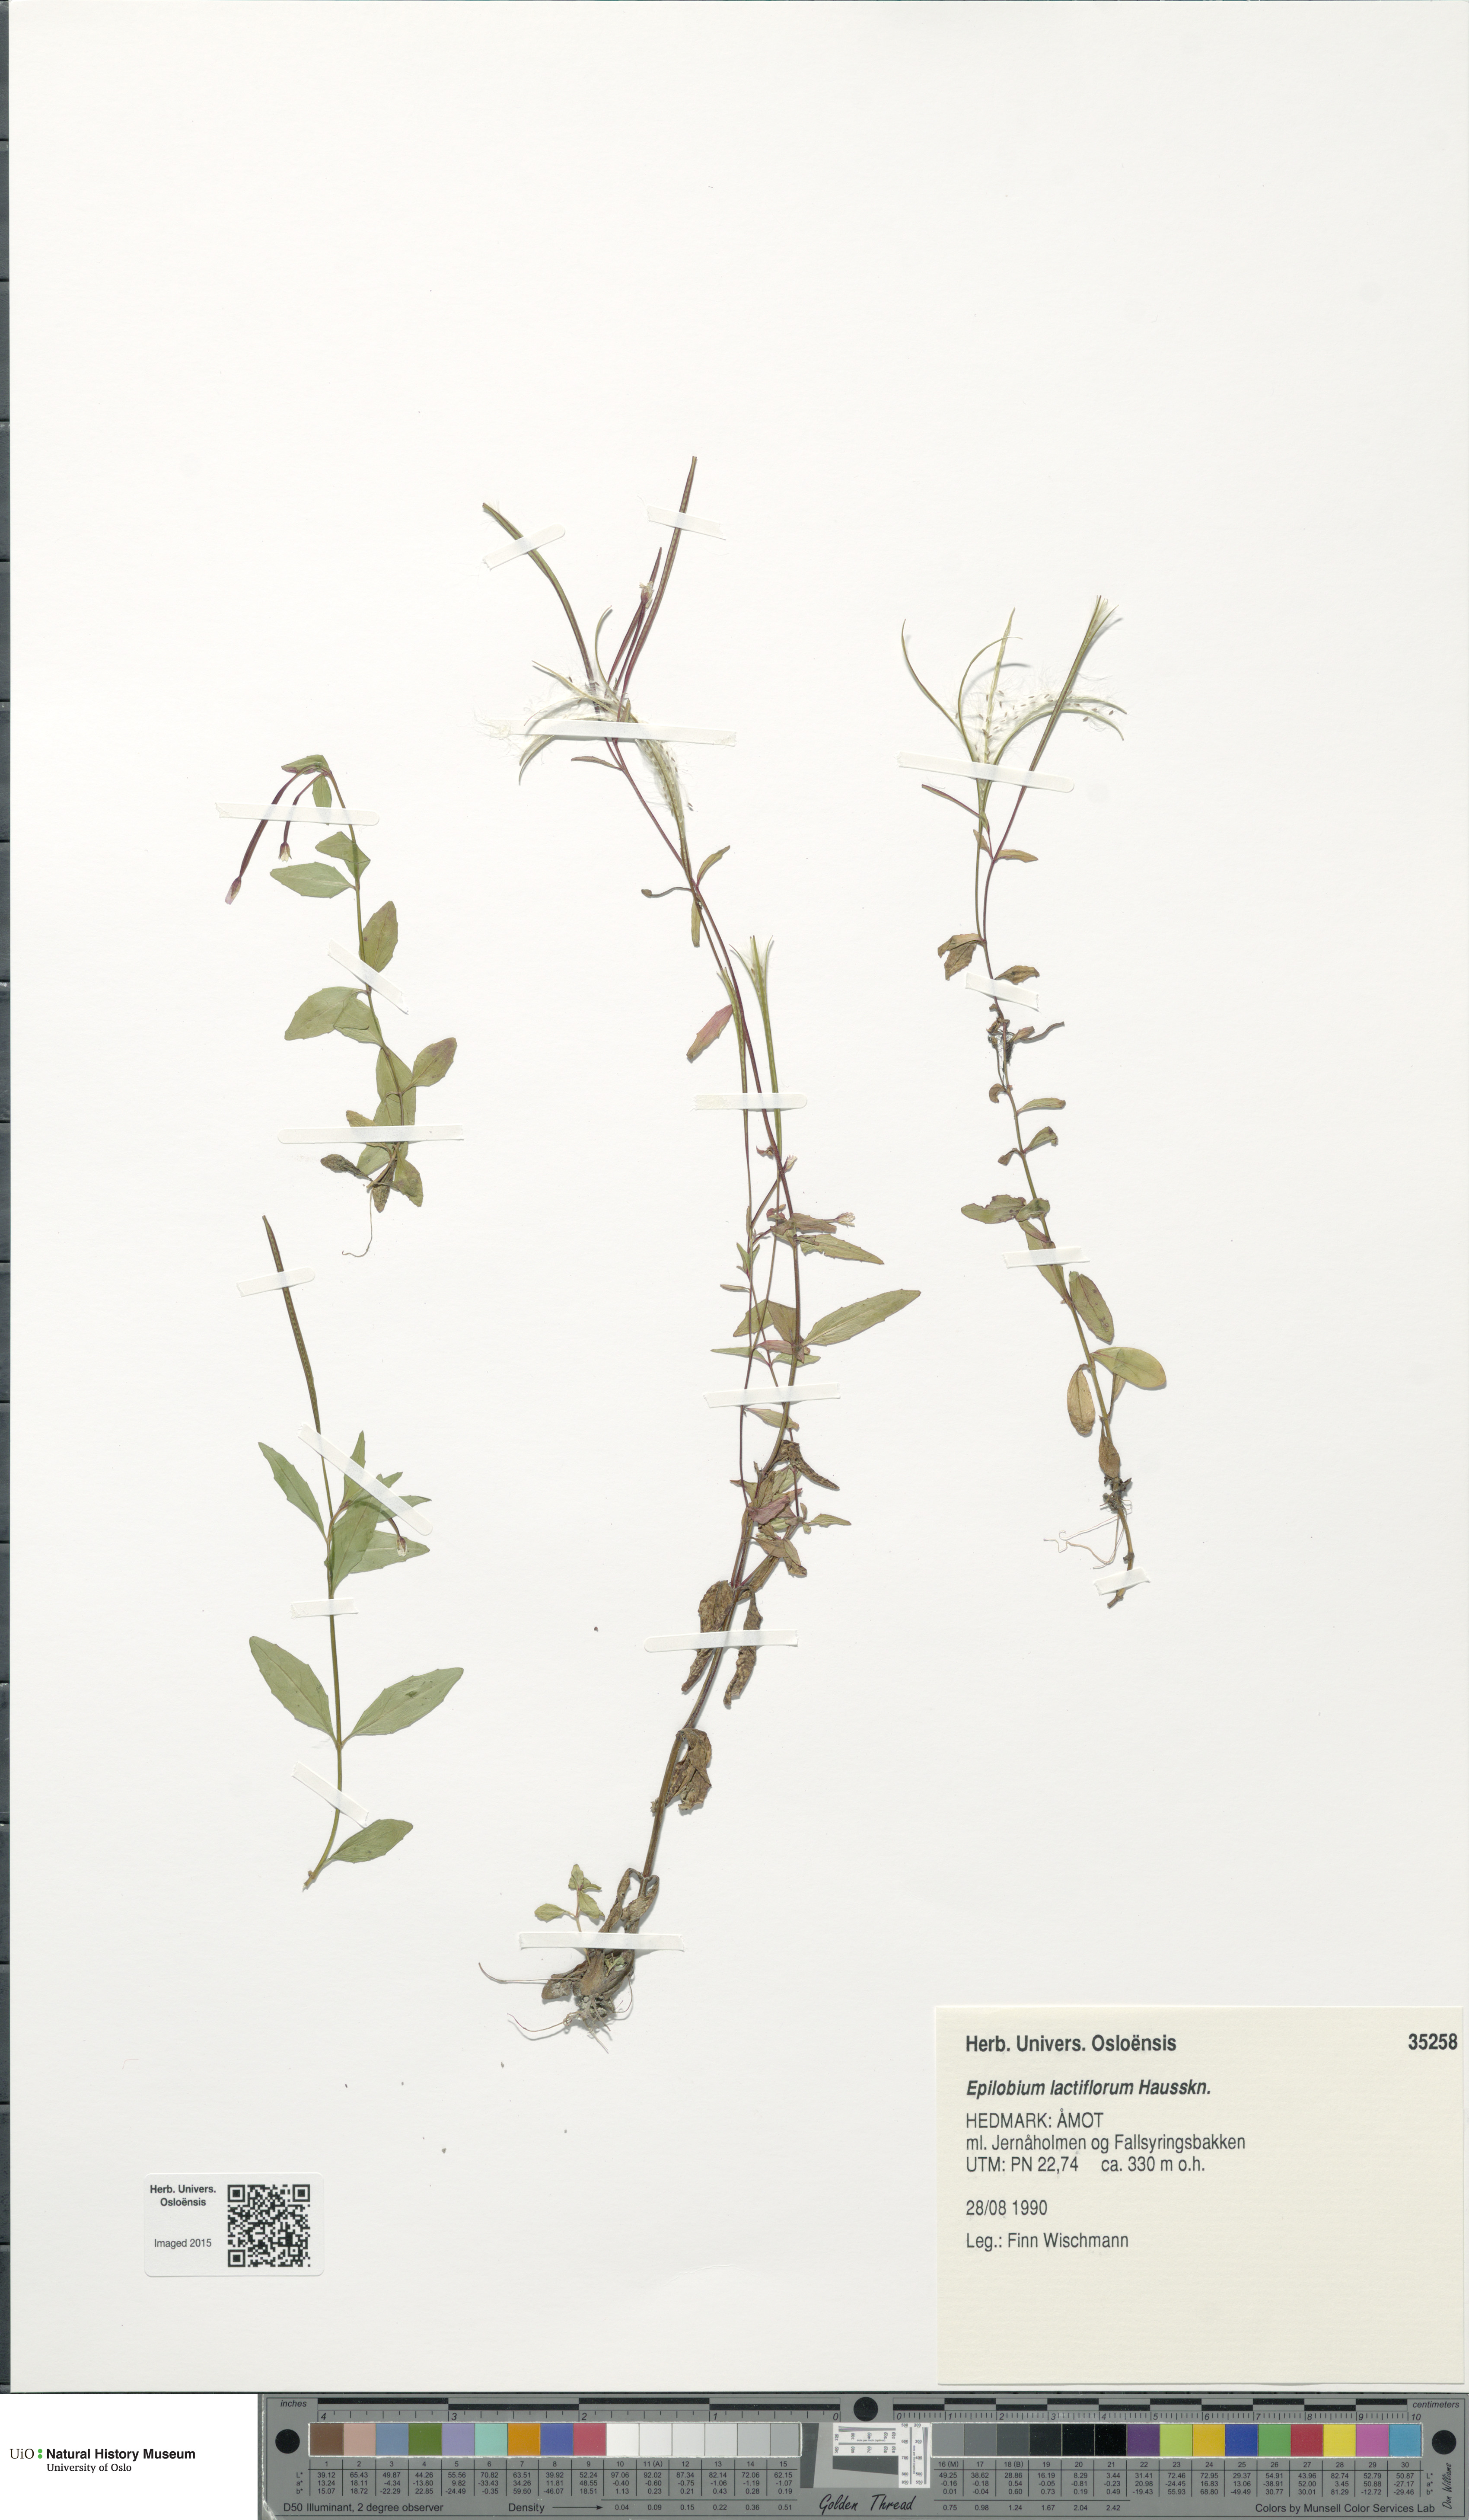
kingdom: Plantae
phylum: Tracheophyta
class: Magnoliopsida
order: Myrtales
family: Onagraceae
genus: Epilobium
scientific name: Epilobium lactiflorum
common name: Milkflower willowherb
